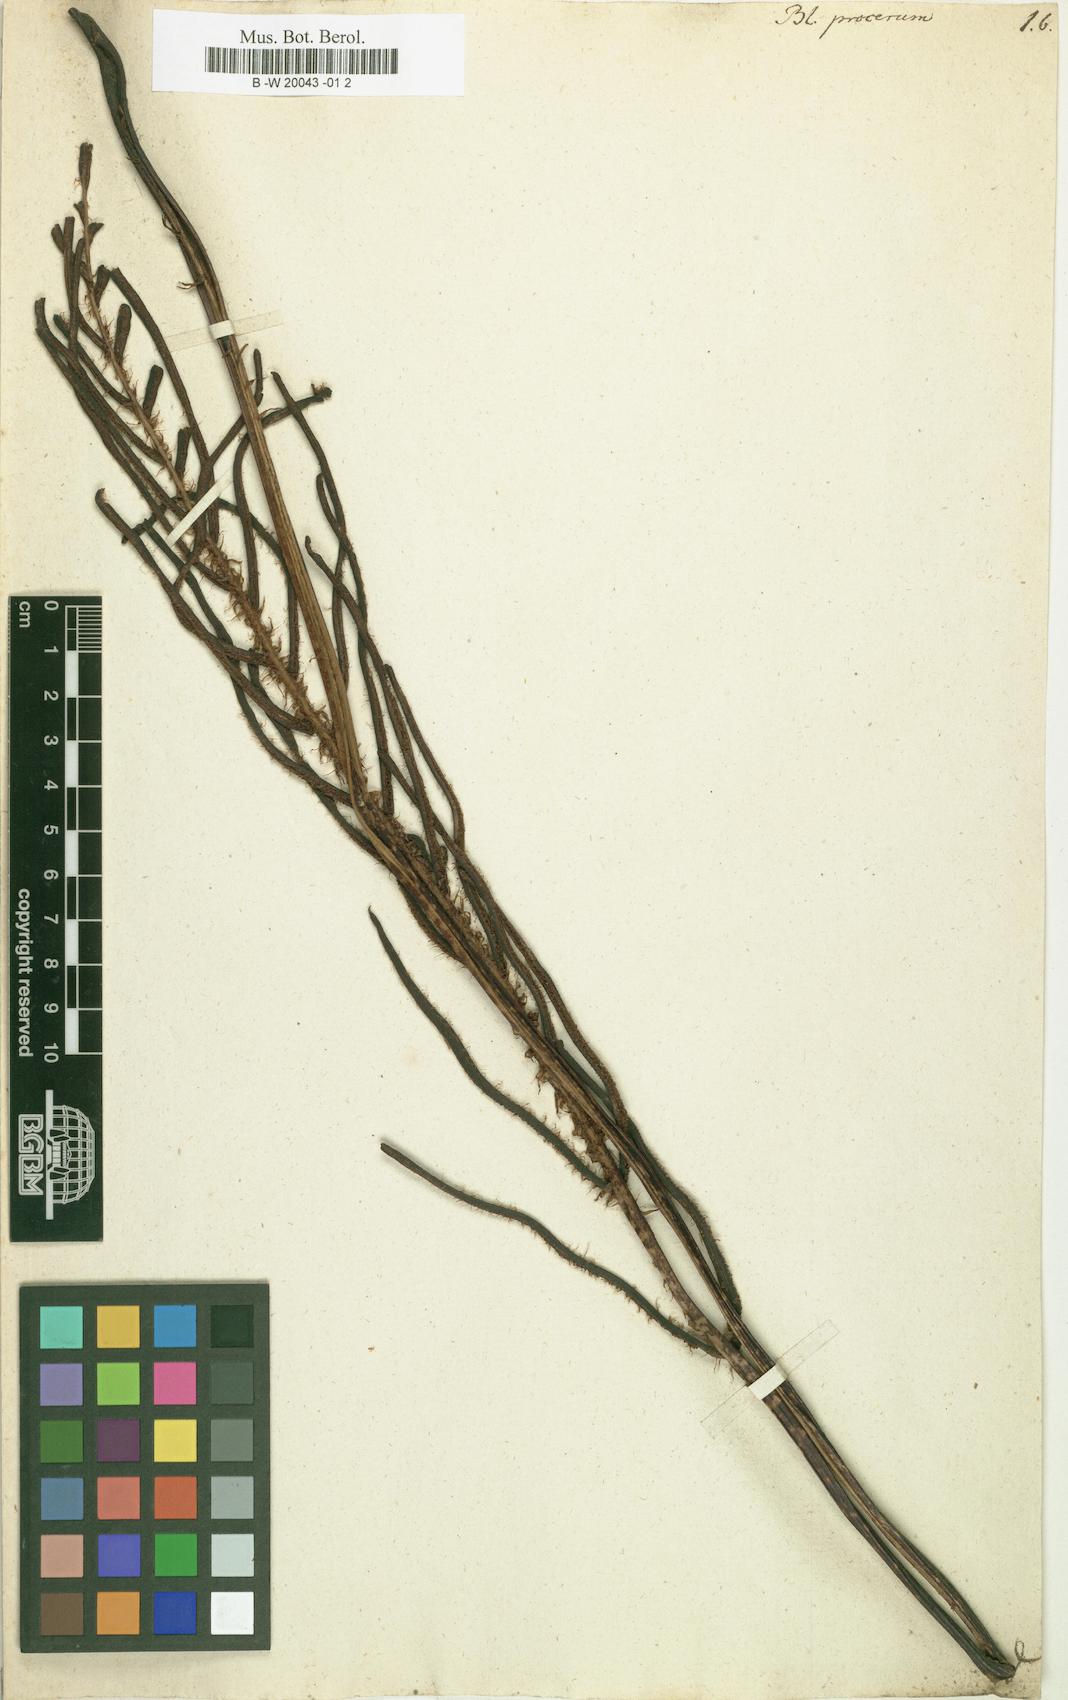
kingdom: Plantae
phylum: Tracheophyta
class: Polypodiopsida
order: Polypodiales
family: Blechnaceae
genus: Parablechnum
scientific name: Parablechnum procerum
